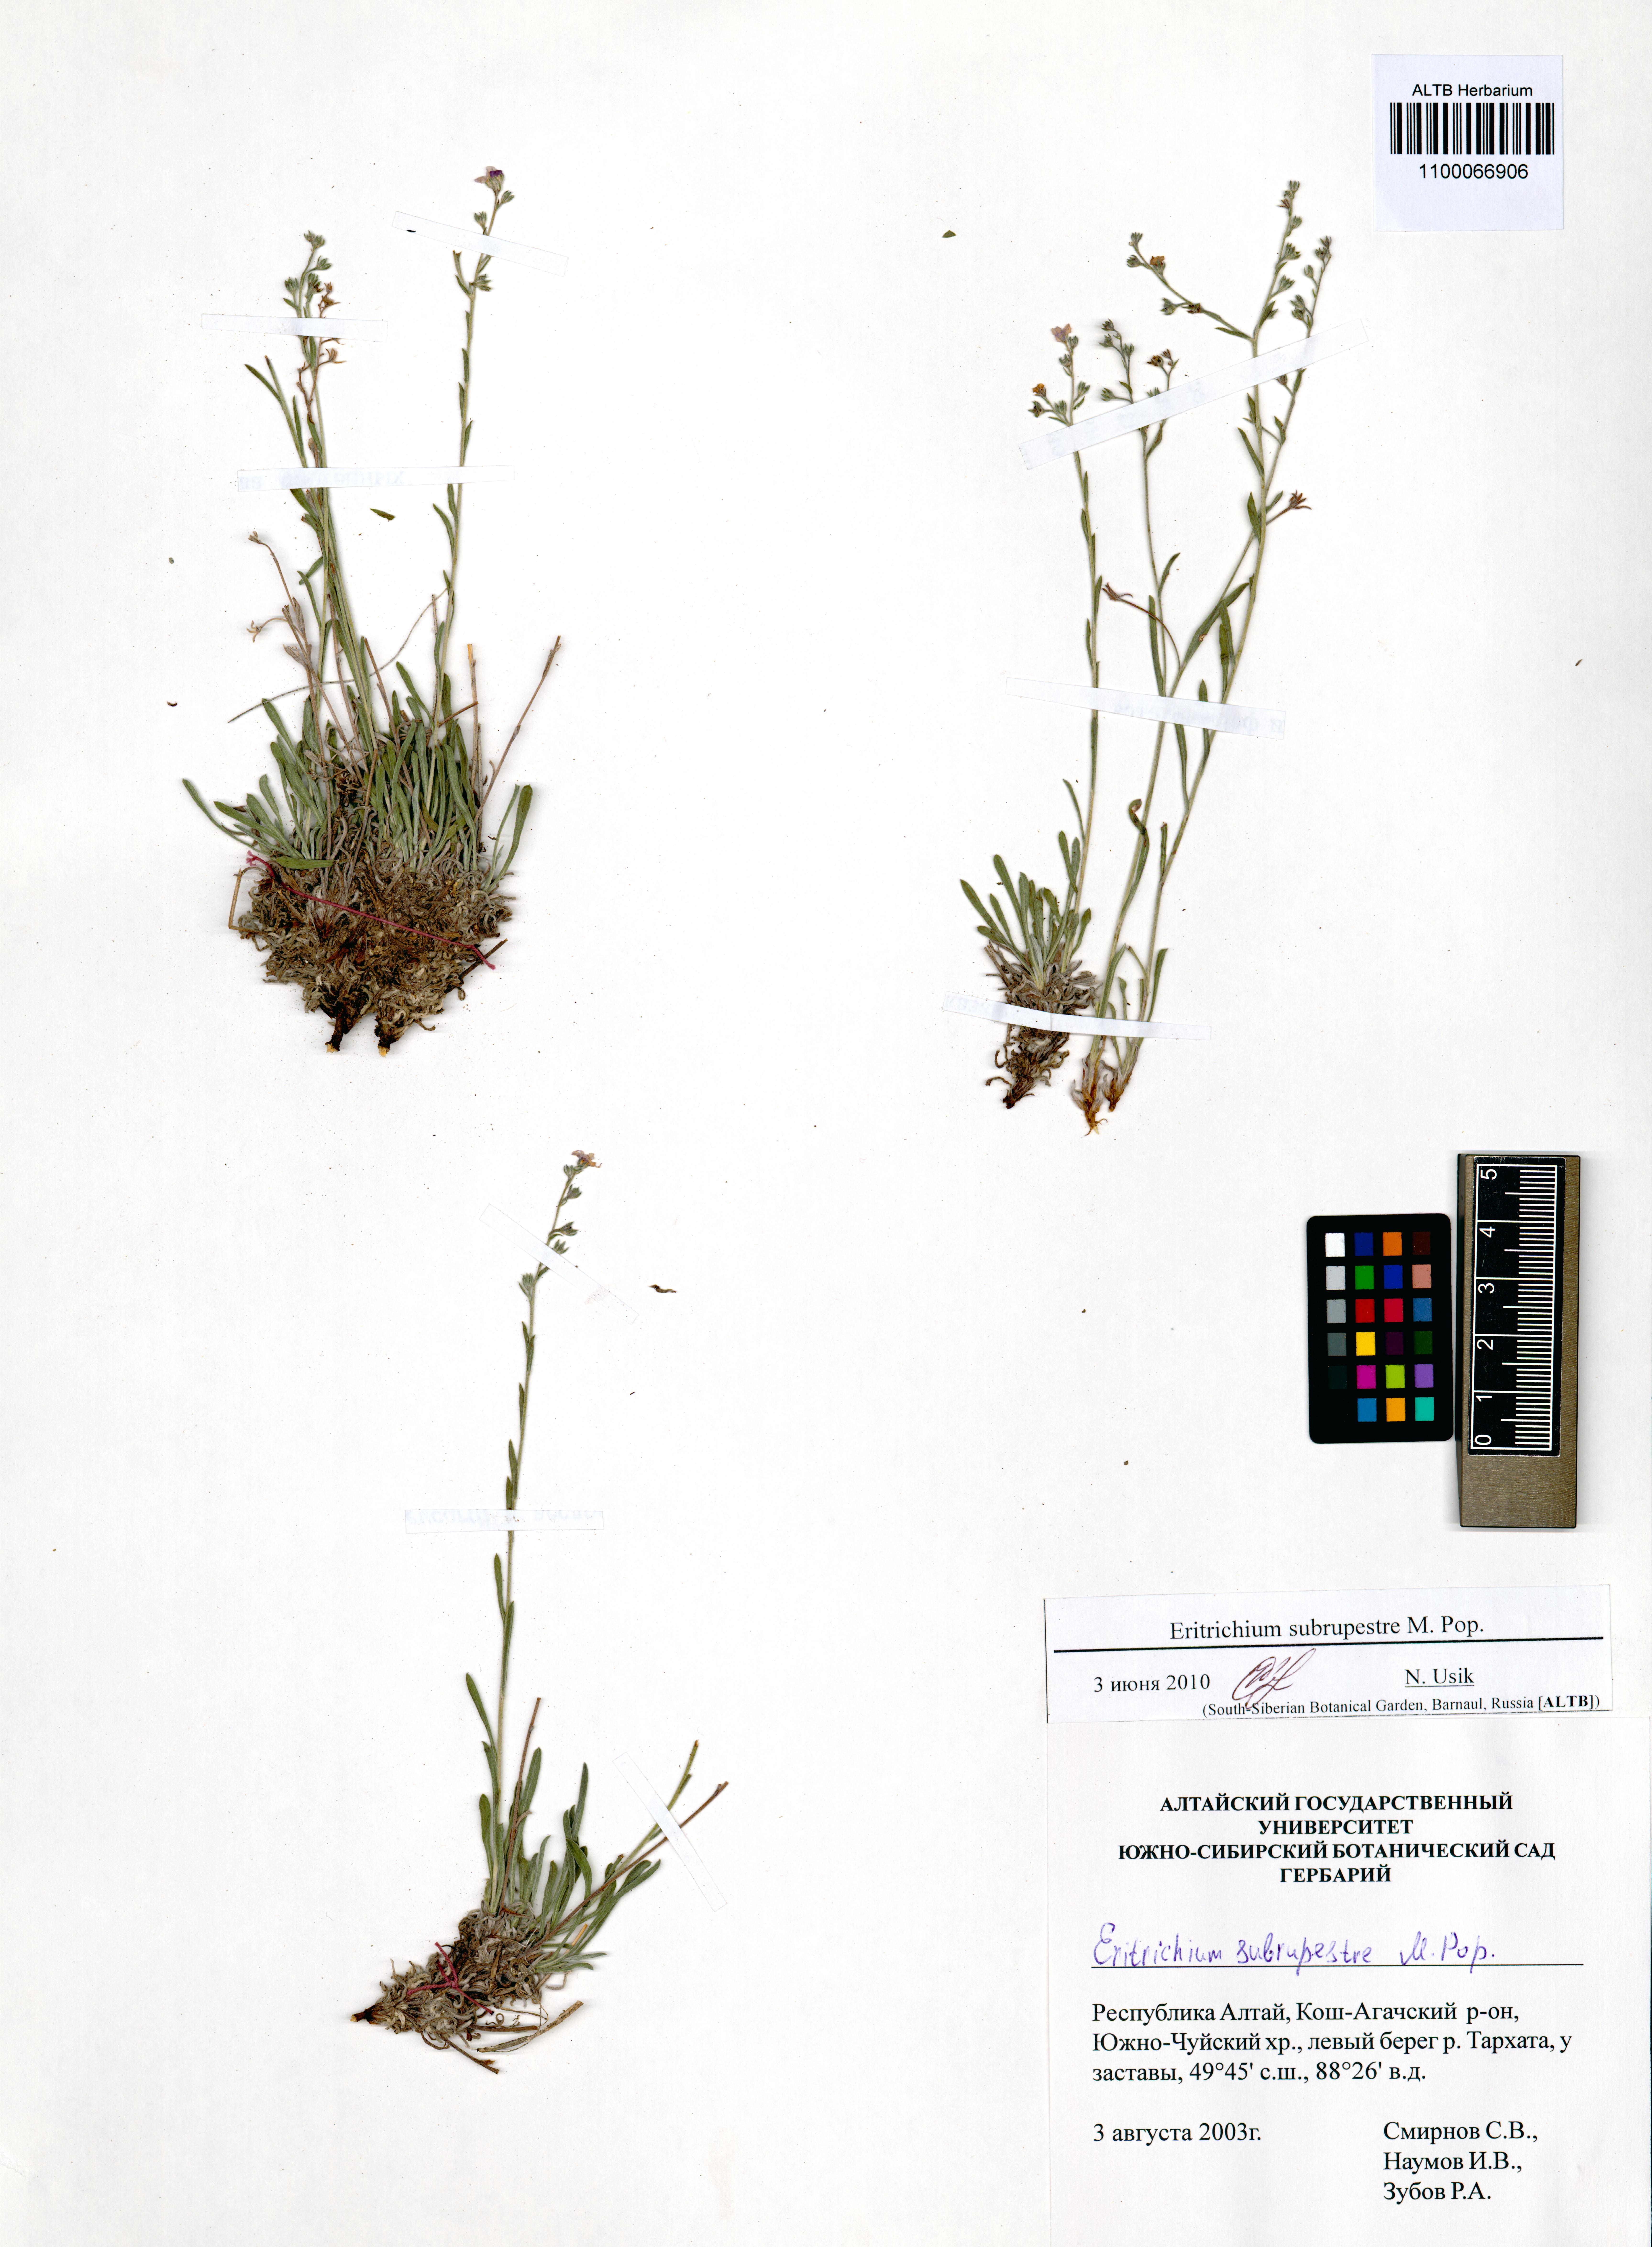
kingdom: Plantae
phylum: Tracheophyta
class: Magnoliopsida
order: Boraginales
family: Boraginaceae
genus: Eritrichium
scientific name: Eritrichium pauciflorum
